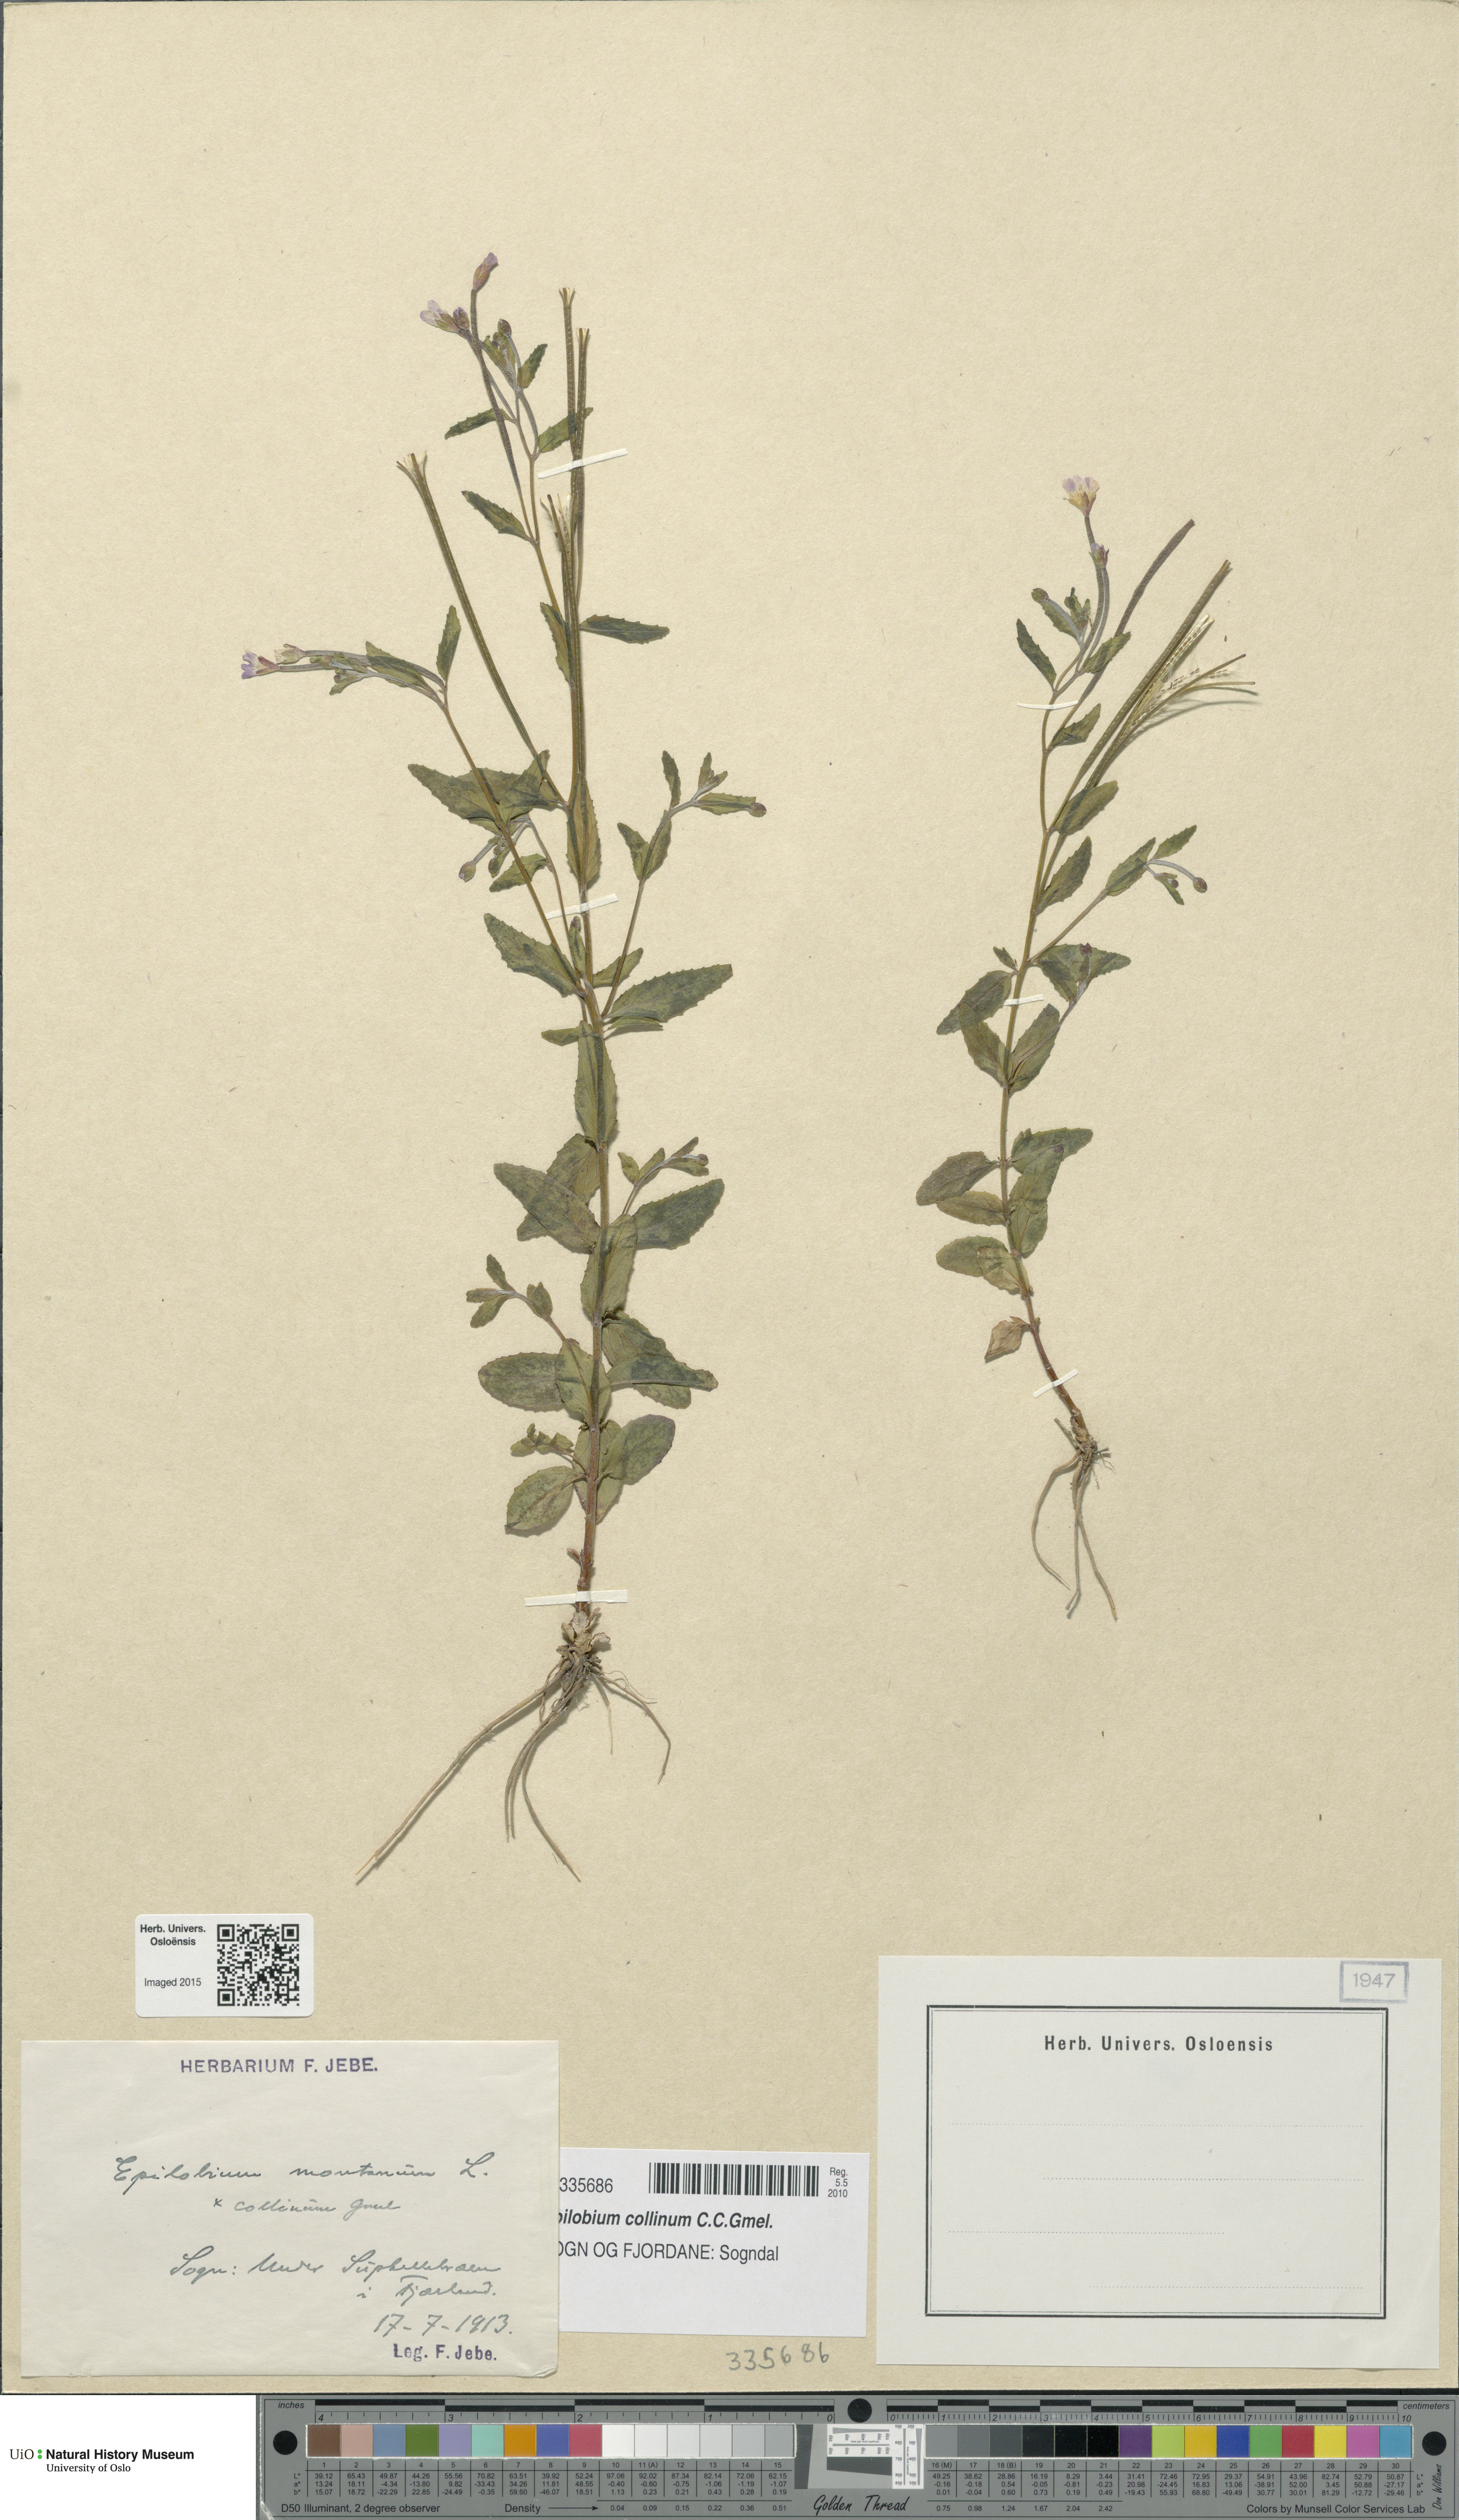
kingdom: Plantae
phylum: Tracheophyta
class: Magnoliopsida
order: Myrtales
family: Onagraceae
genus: Epilobium
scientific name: Epilobium collinum
